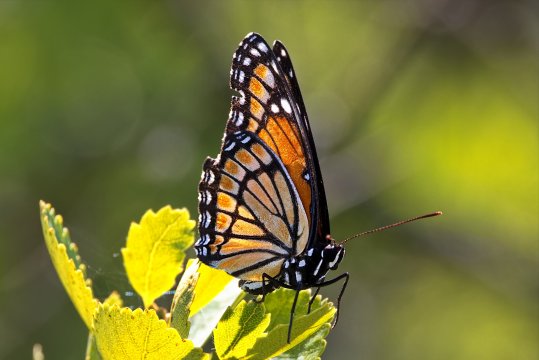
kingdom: Animalia
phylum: Arthropoda
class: Insecta
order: Lepidoptera
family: Nymphalidae
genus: Limenitis
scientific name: Limenitis archippus
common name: Viceroy
